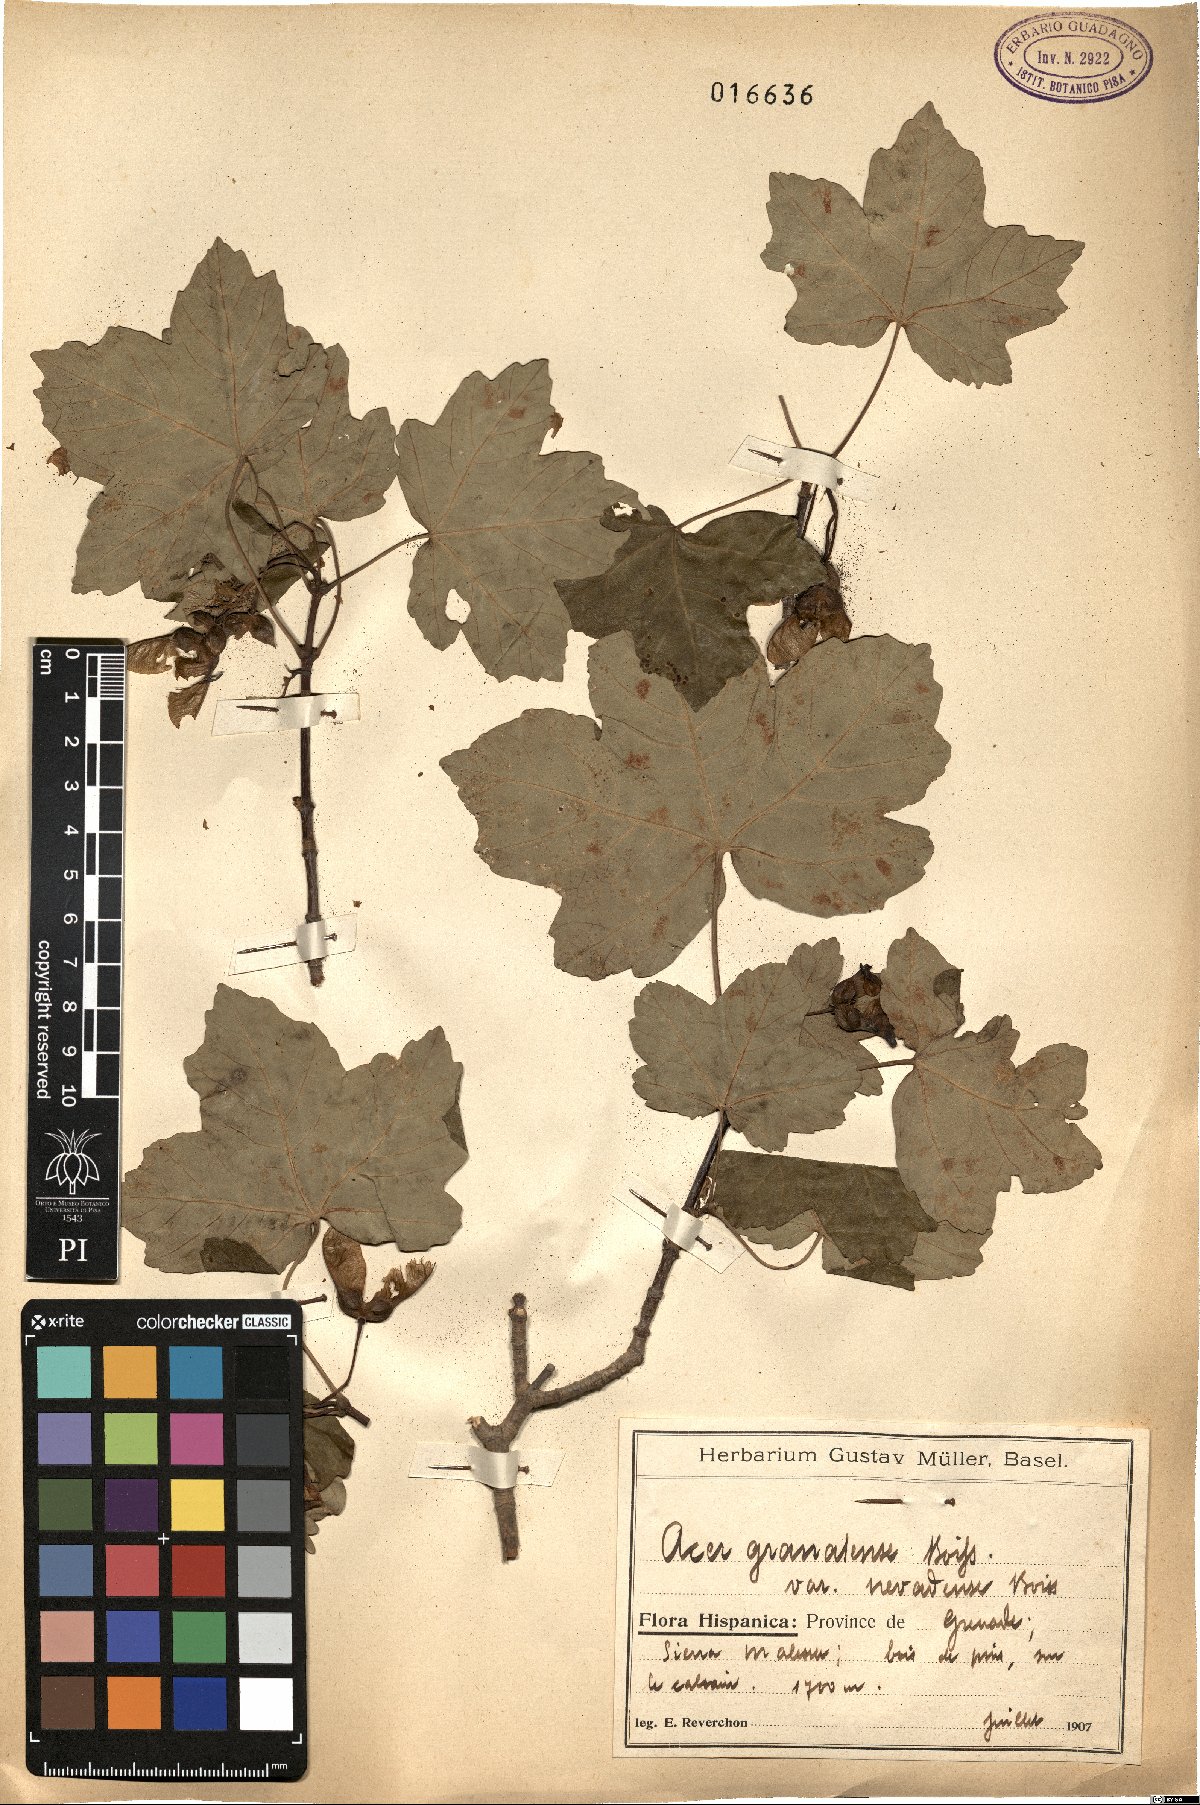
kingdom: Plantae
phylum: Tracheophyta
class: Magnoliopsida
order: Sapindales
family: Sapindaceae
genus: Acer
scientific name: Acer granatense
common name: Spanish maple
